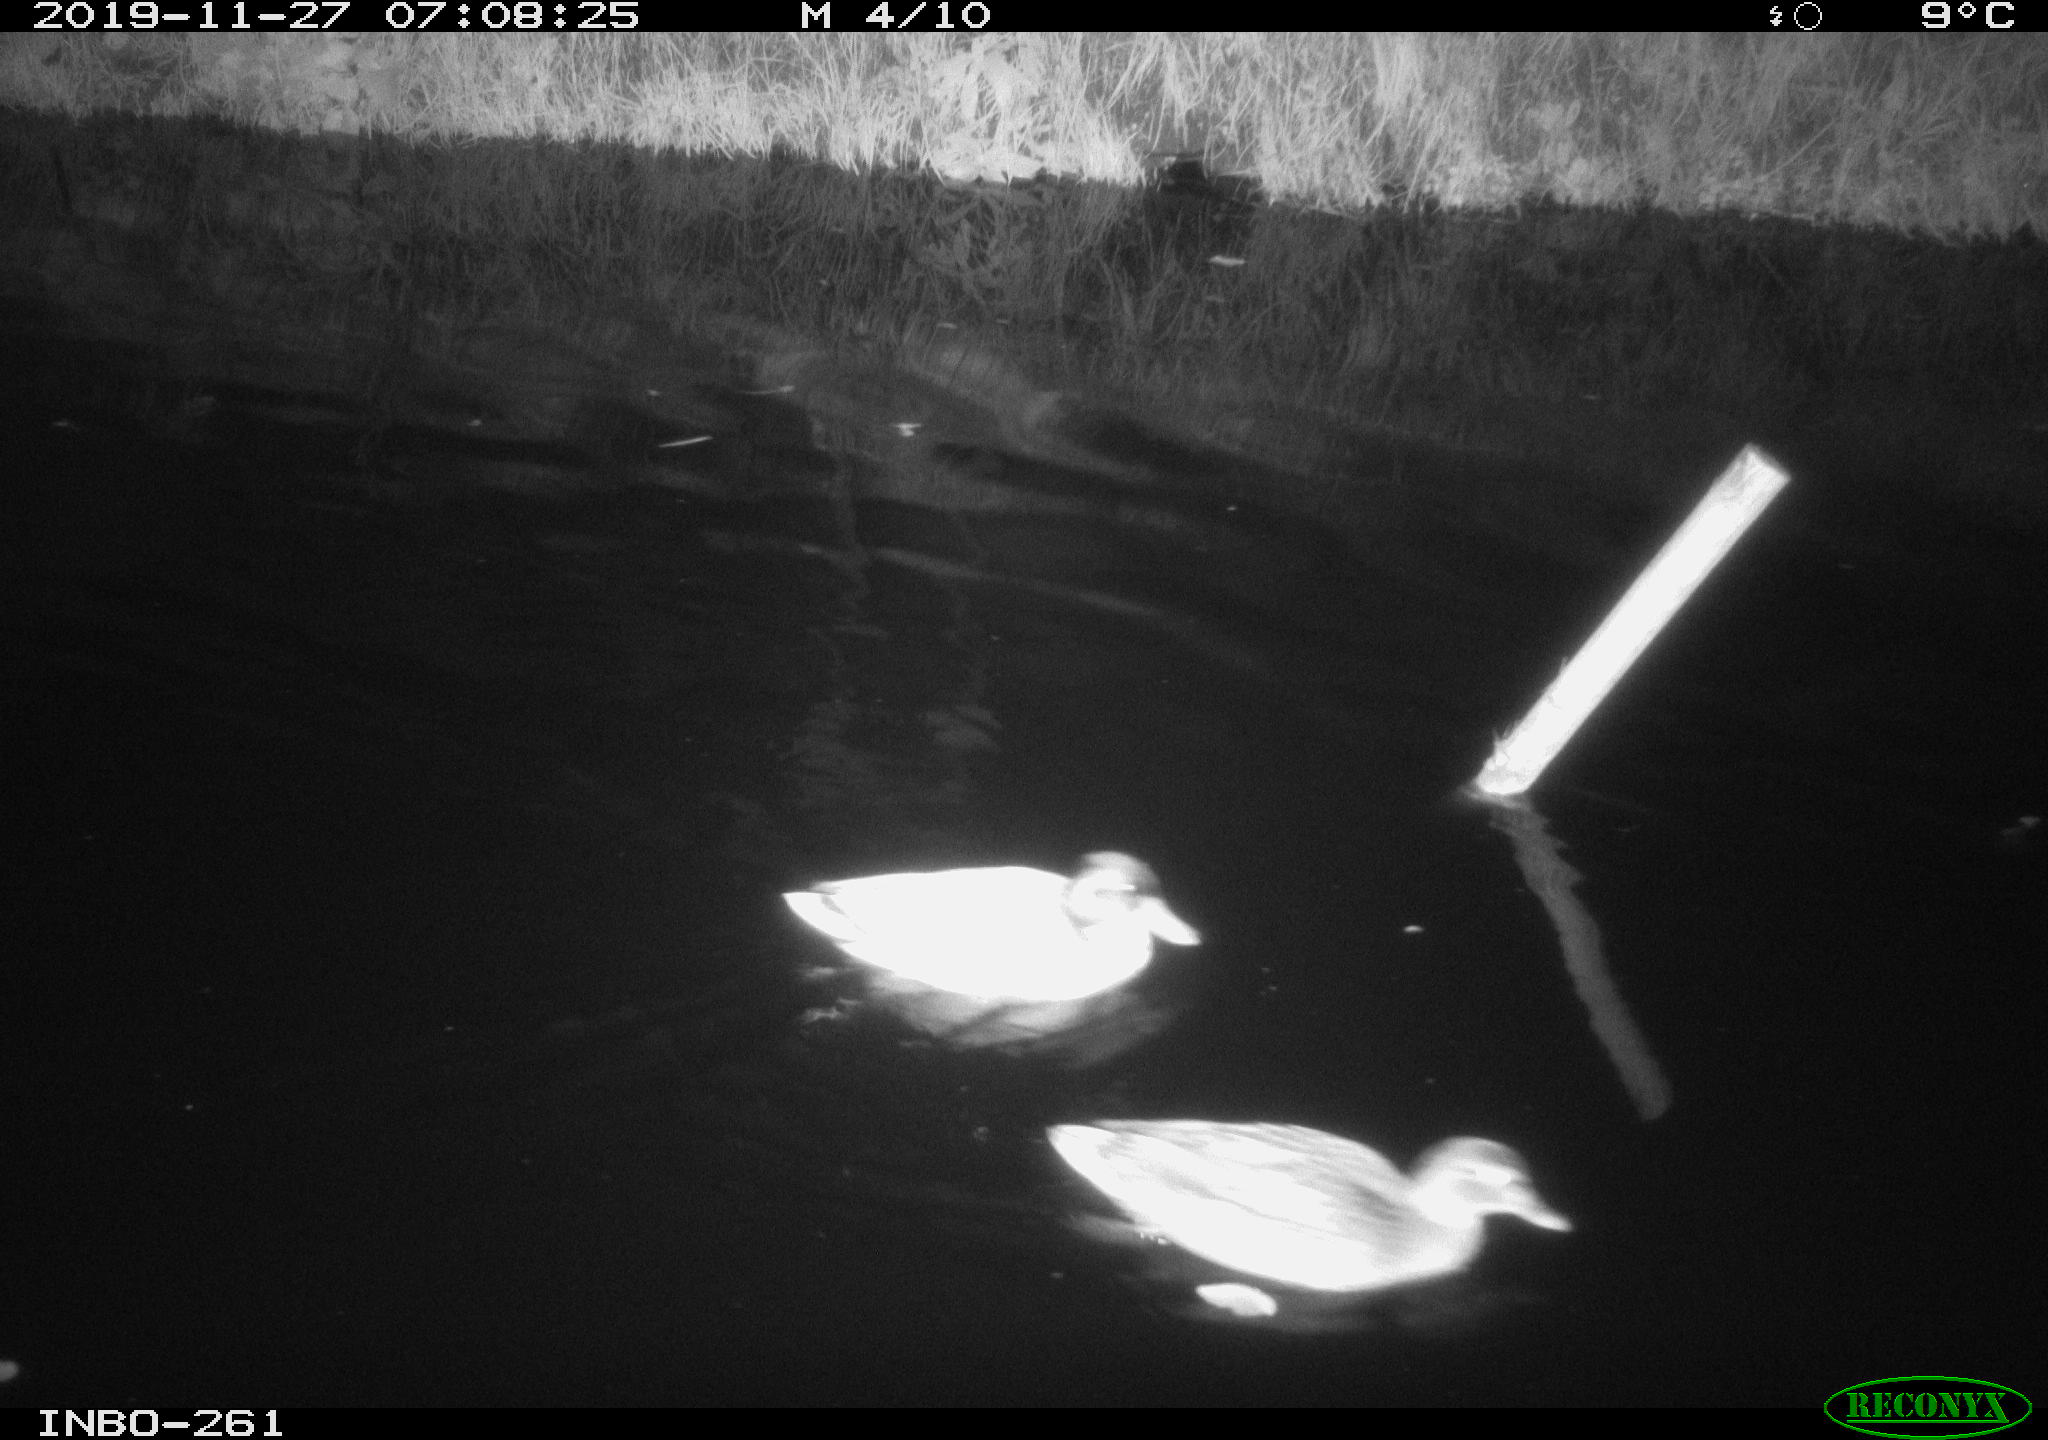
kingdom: Animalia
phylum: Chordata
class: Aves
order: Anseriformes
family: Anatidae
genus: Anas
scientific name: Anas platyrhynchos
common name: Mallard
